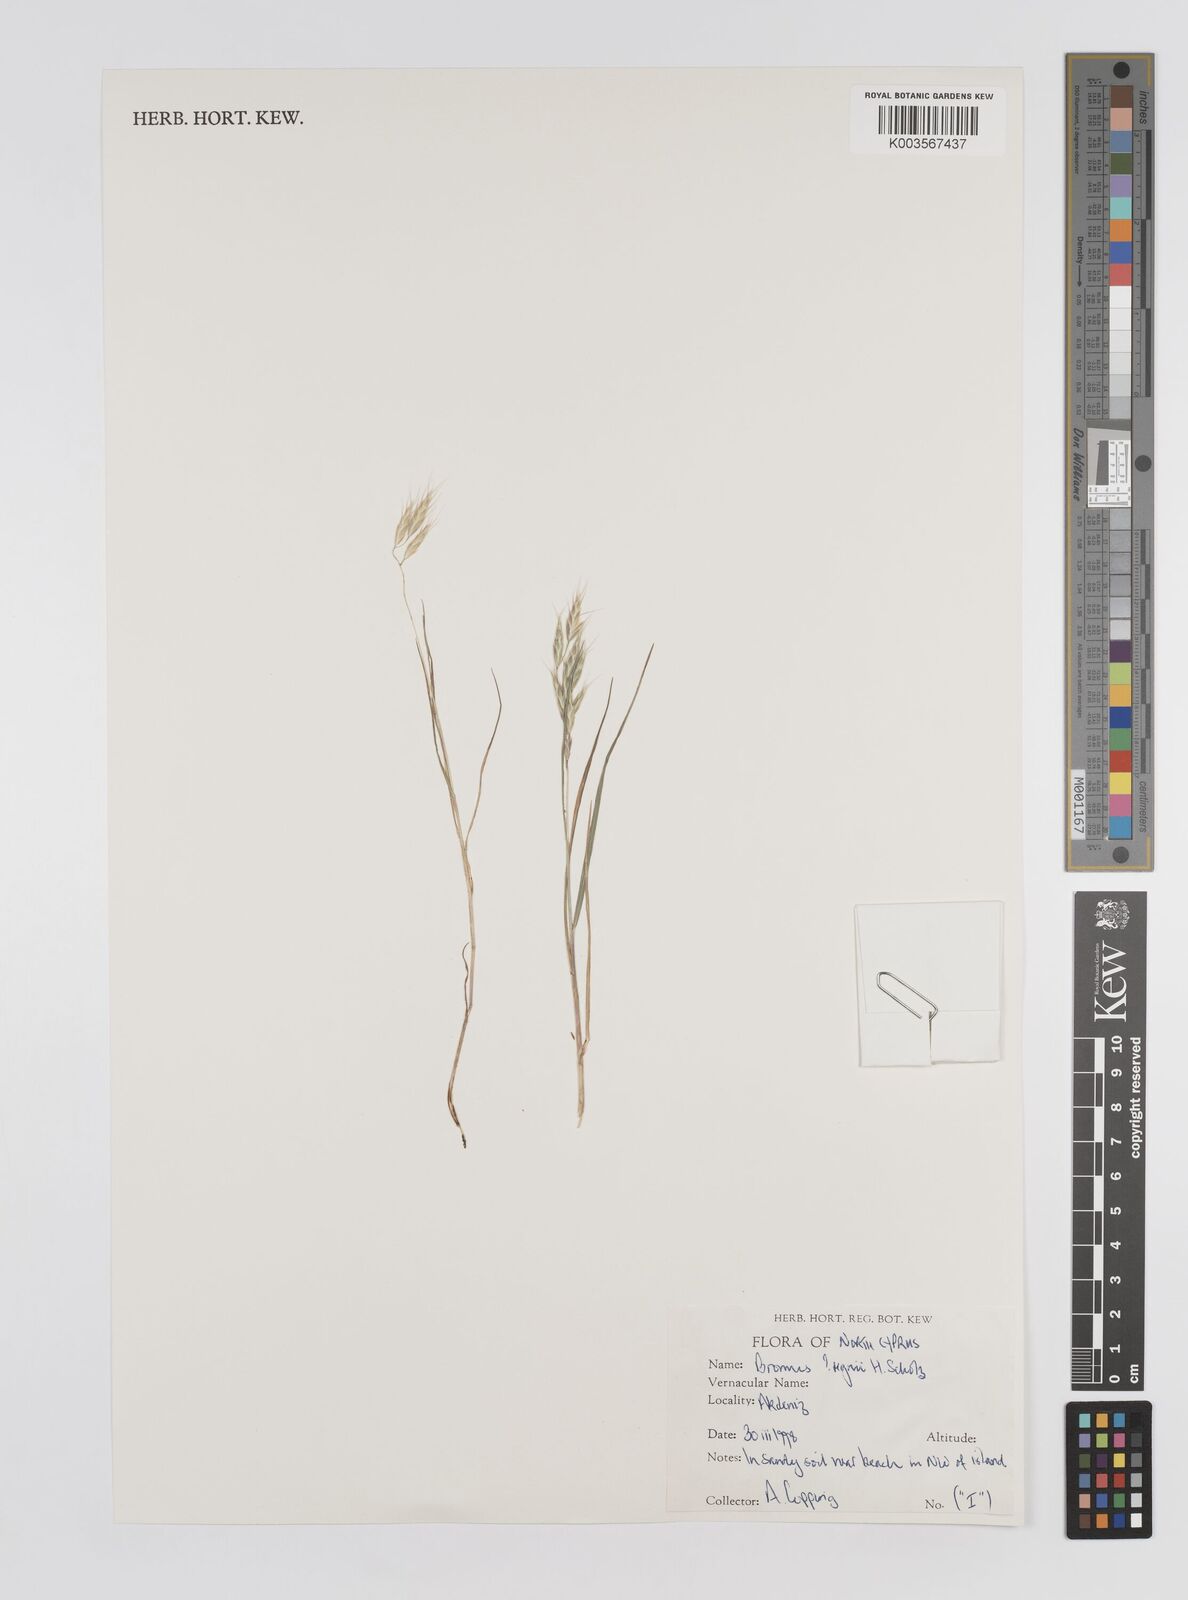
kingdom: Plantae
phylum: Tracheophyta
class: Liliopsida
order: Poales
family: Poaceae
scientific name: Poaceae
